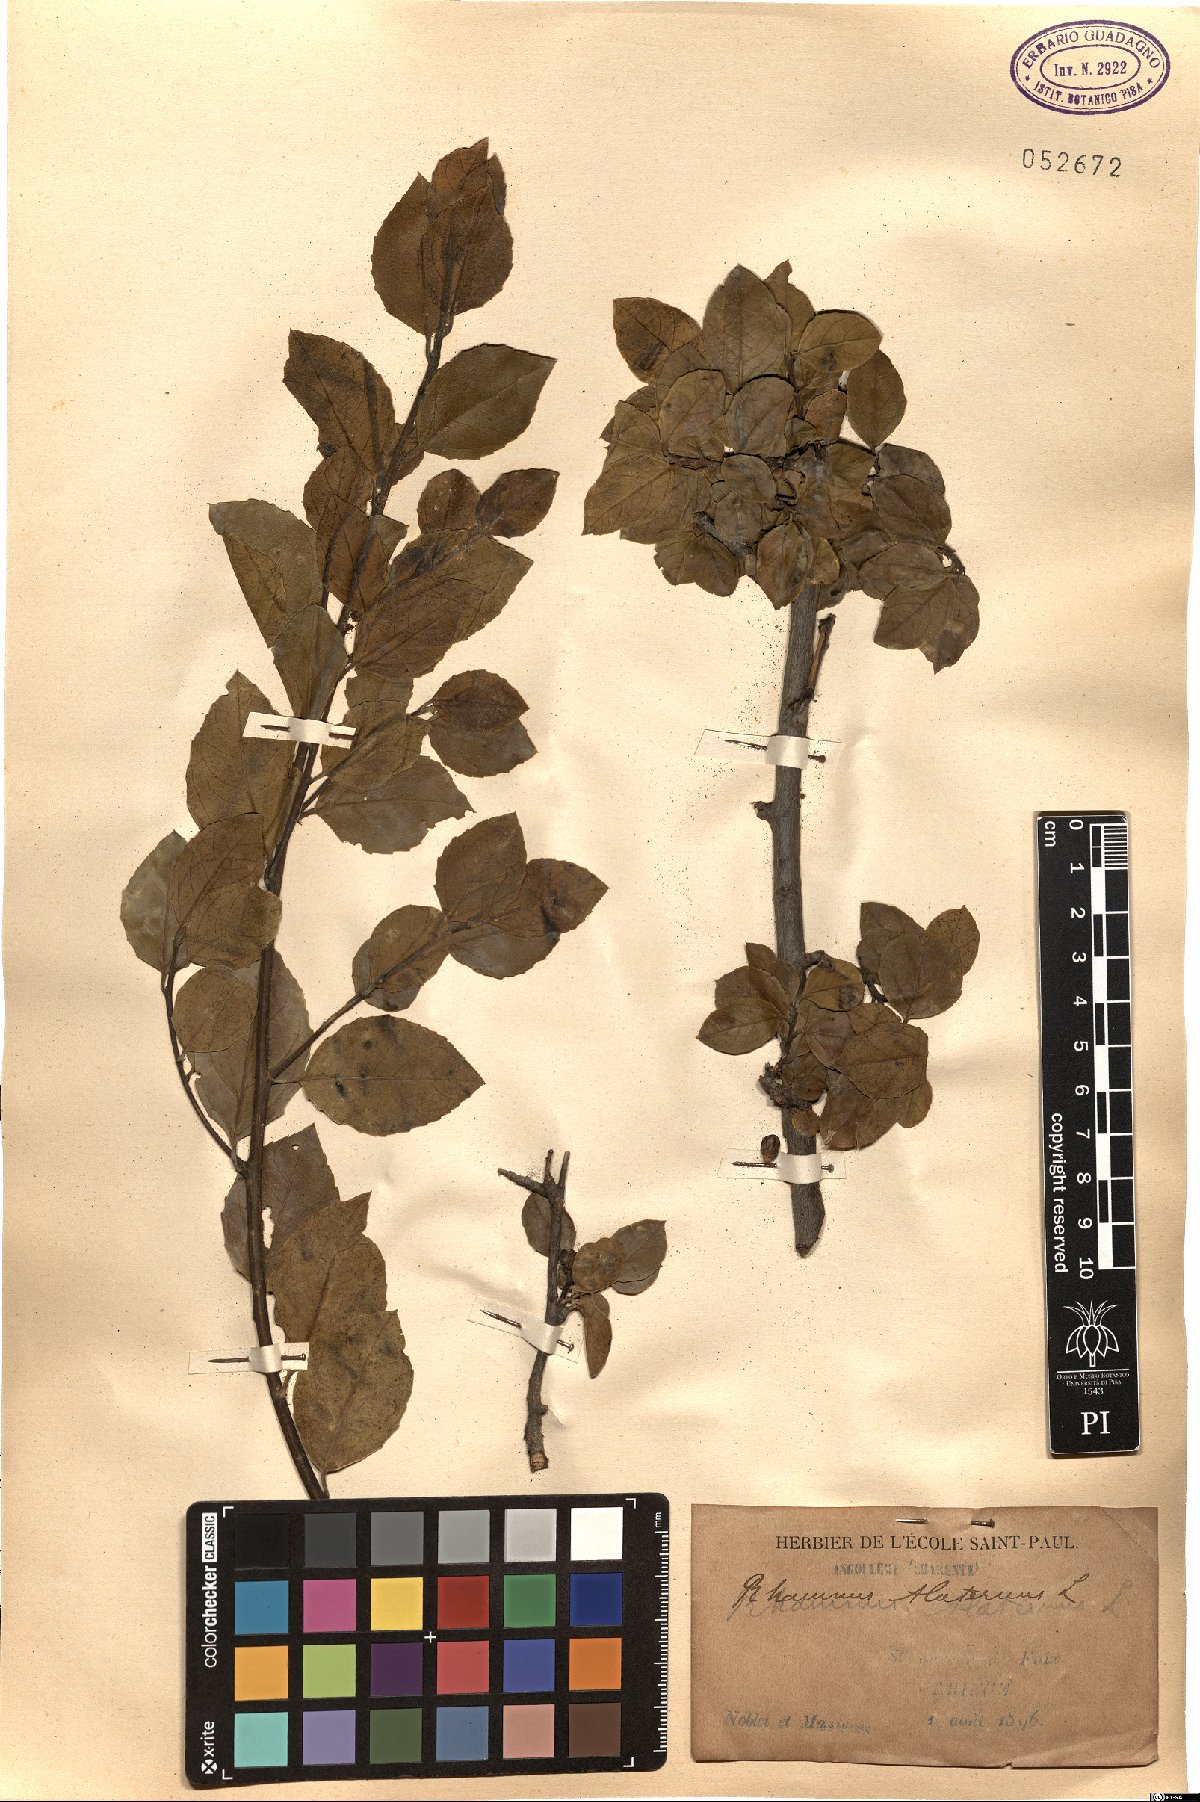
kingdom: Plantae
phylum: Tracheophyta
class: Magnoliopsida
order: Rosales
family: Rhamnaceae
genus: Rhamnus
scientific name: Rhamnus alaternus
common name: Mediterranean buckthorn
